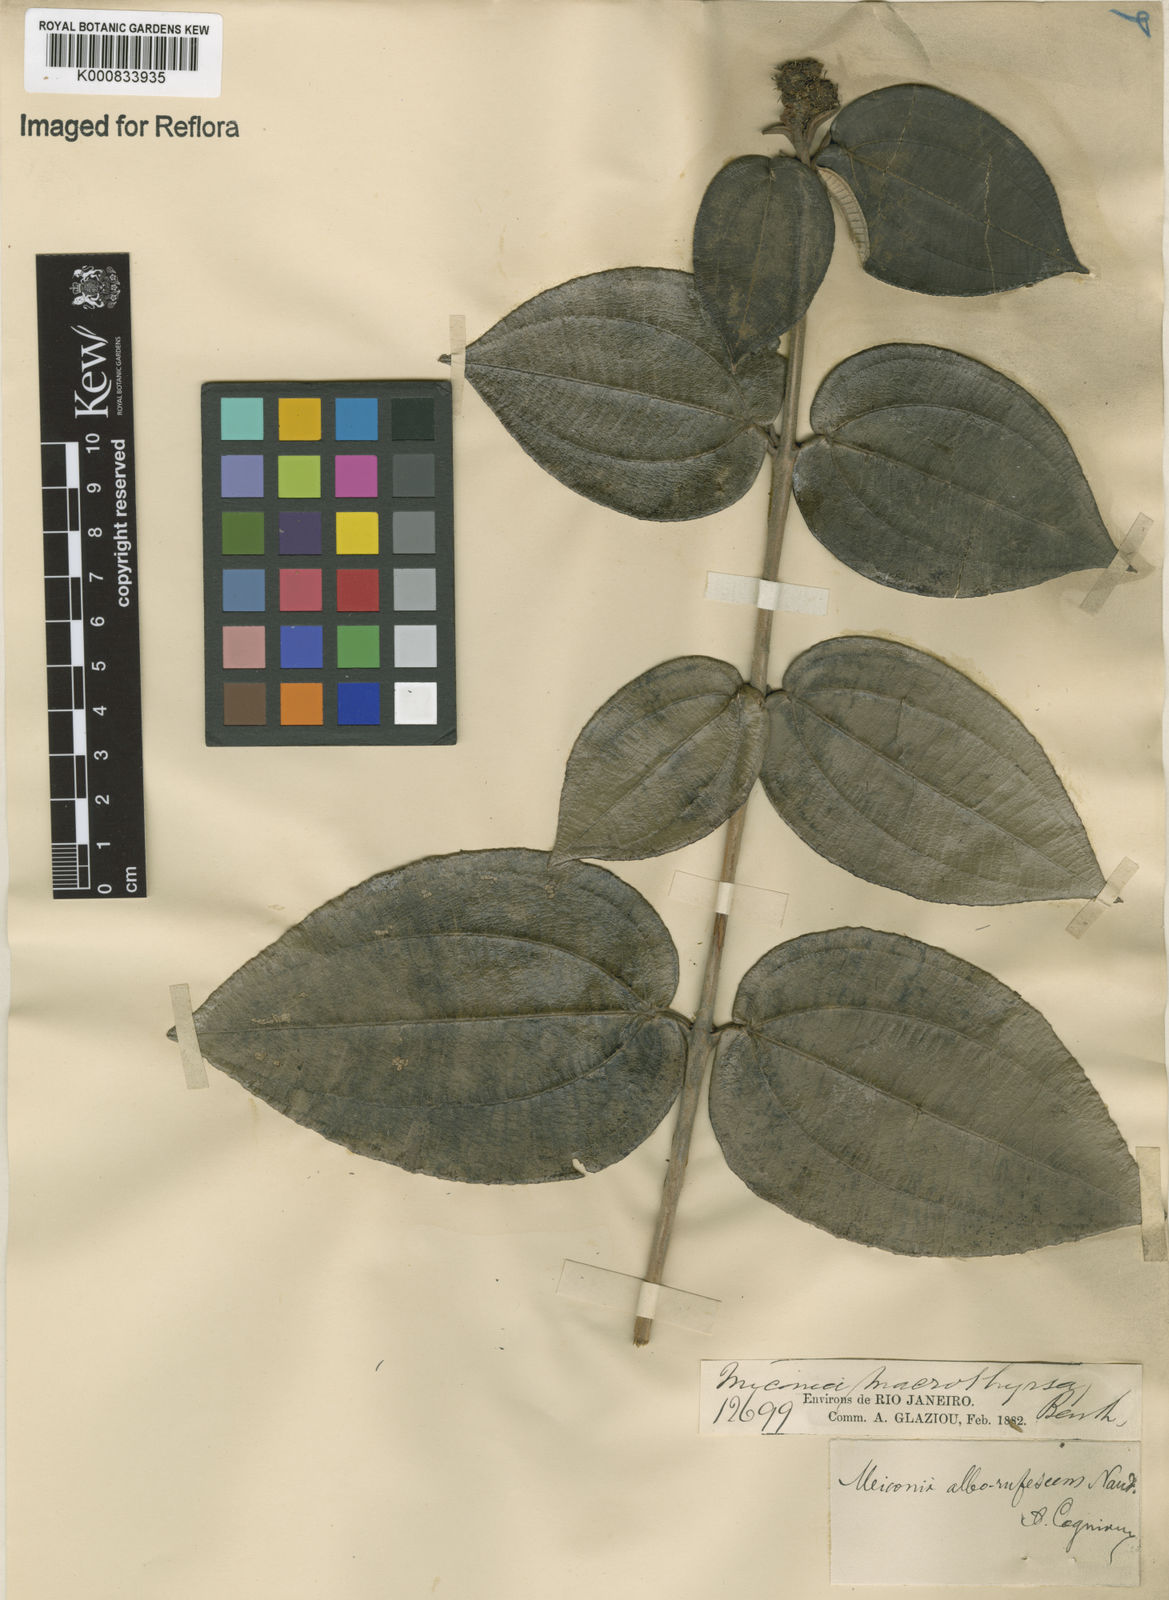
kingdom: Plantae
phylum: Tracheophyta
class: Magnoliopsida
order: Myrtales
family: Melastomataceae
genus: Miconia
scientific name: Miconia alborufescens
